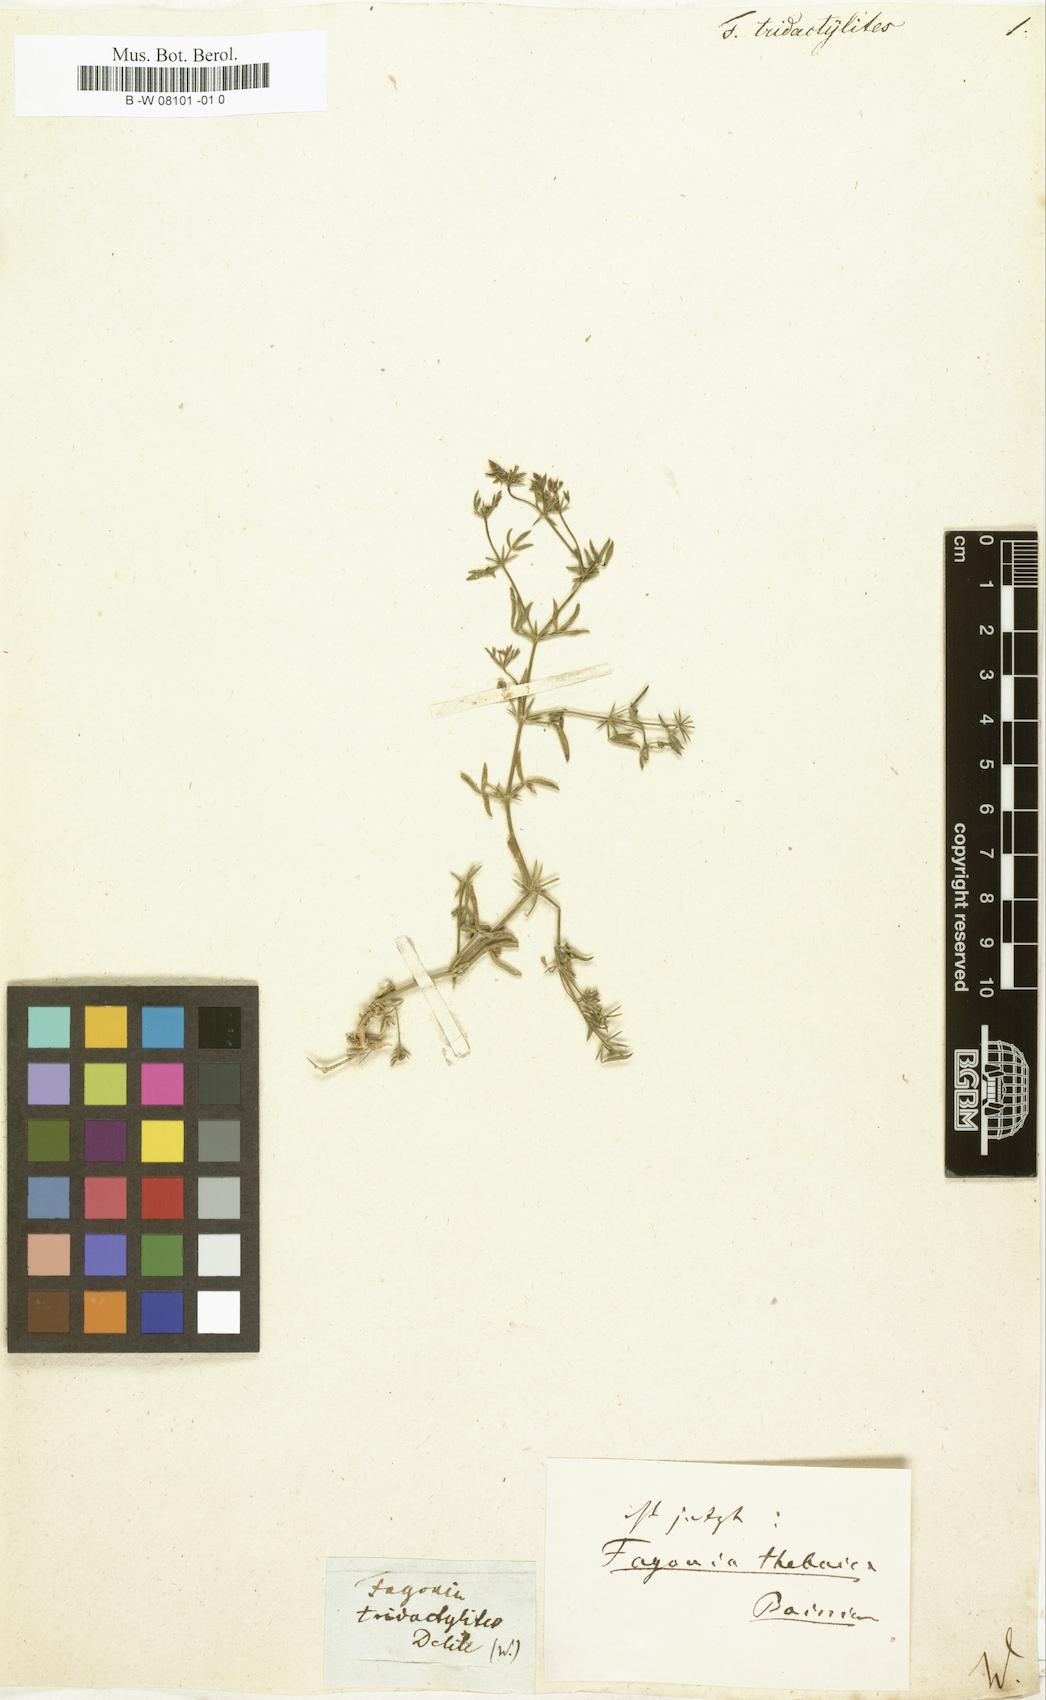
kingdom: Plantae
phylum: Tracheophyta
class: Magnoliopsida
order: Zygophyllales
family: Zygophyllaceae
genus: Fagonia
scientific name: Fagonia
